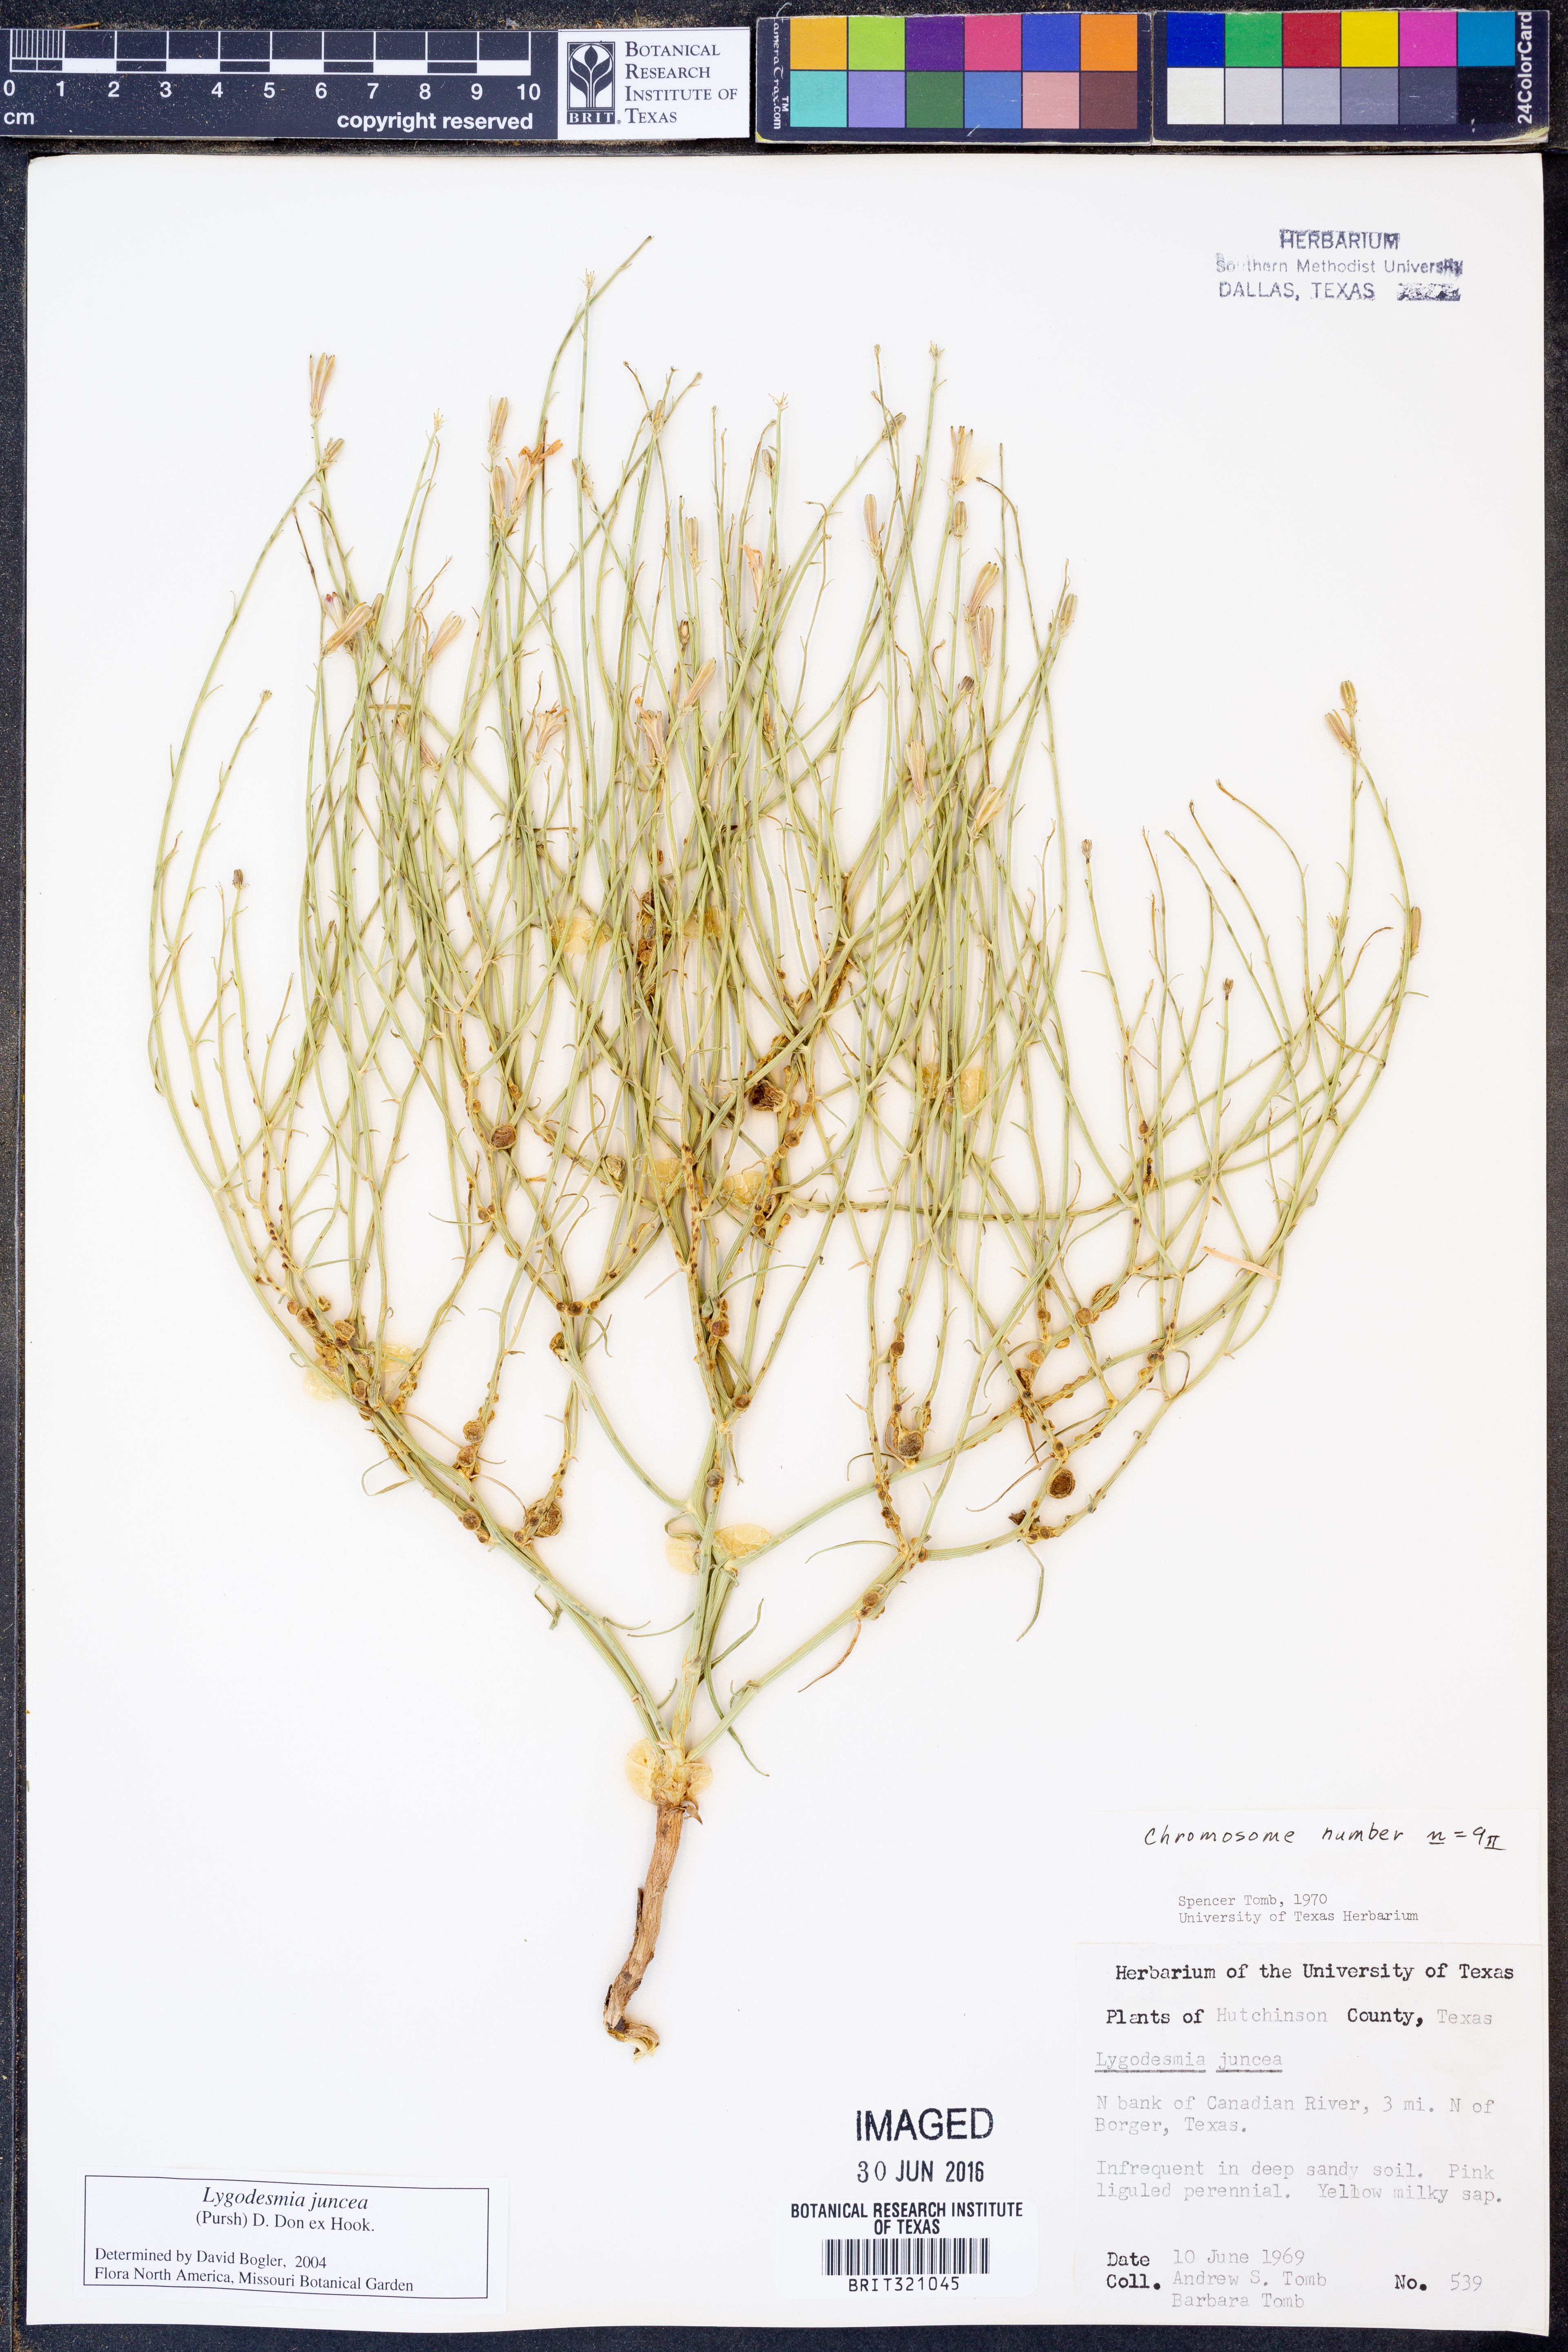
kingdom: Plantae
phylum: Tracheophyta
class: Magnoliopsida
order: Asterales
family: Asteraceae
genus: Lygodesmia
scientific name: Lygodesmia juncea
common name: Common skeletonweed
